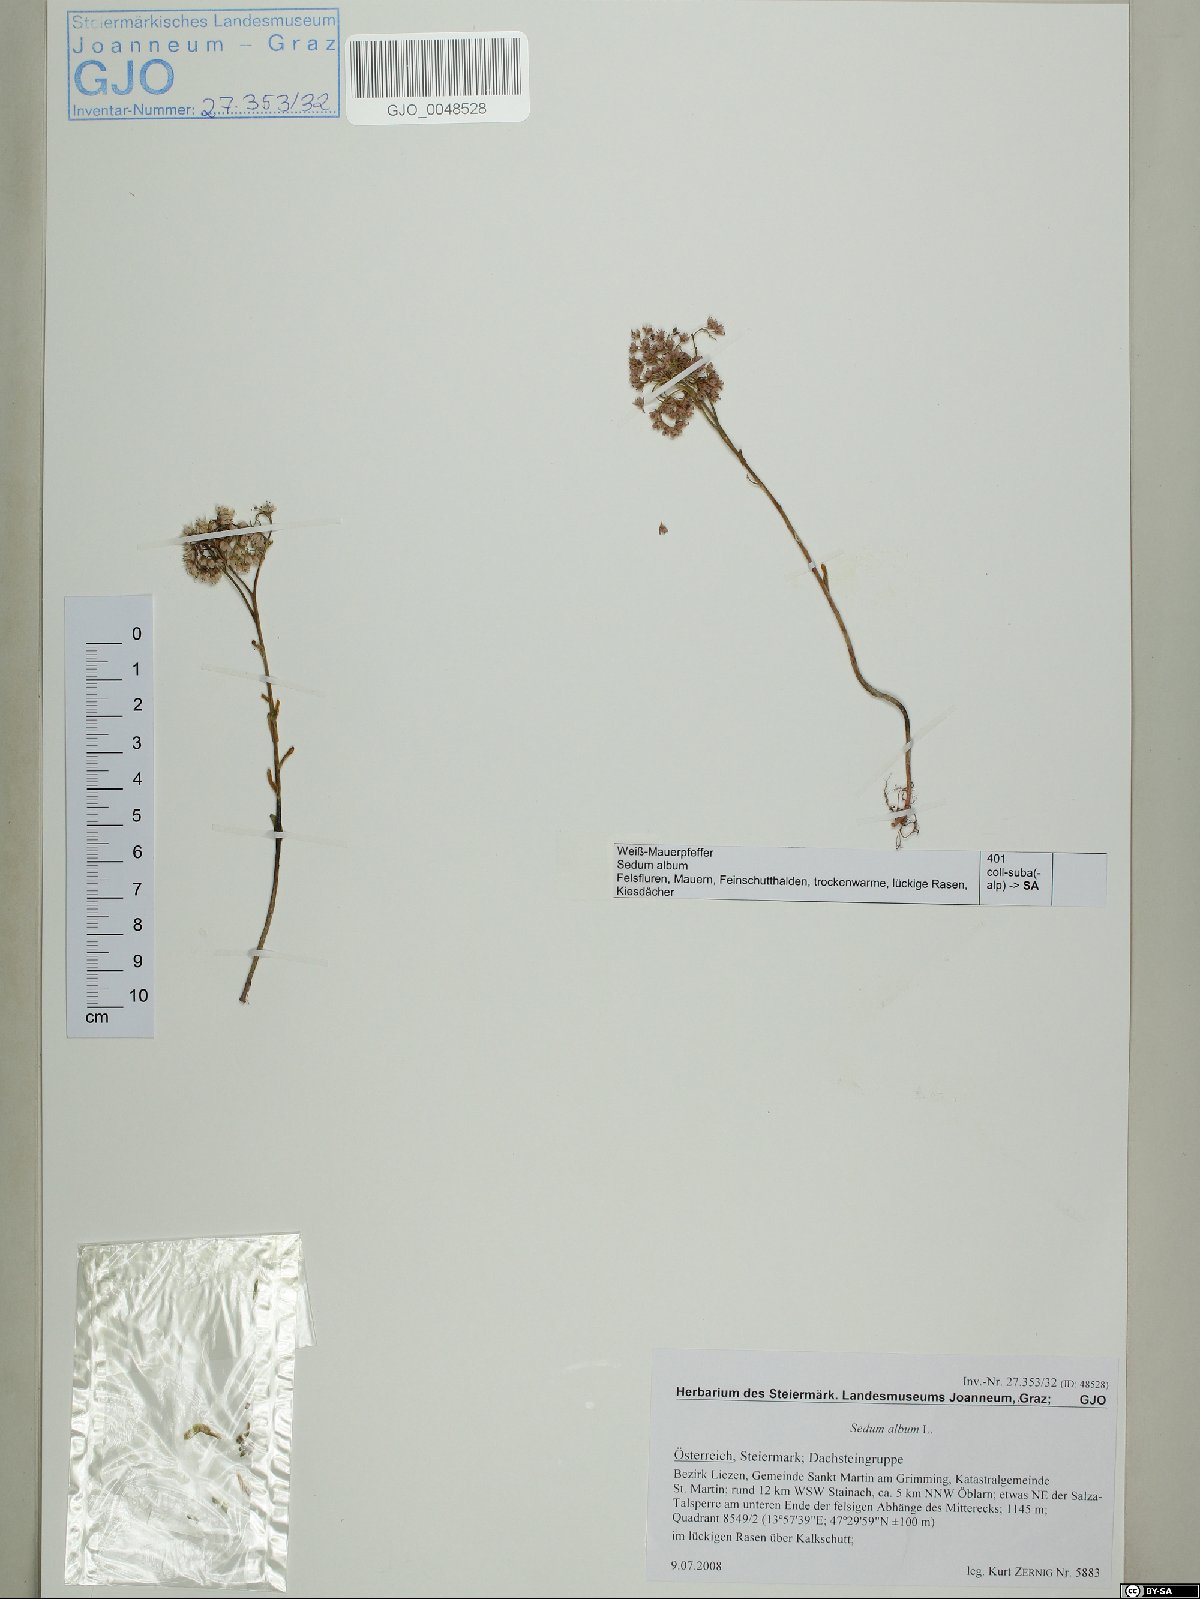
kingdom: Plantae
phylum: Tracheophyta
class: Magnoliopsida
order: Saxifragales
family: Crassulaceae
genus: Sedum
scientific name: Sedum album
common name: White stonecrop
